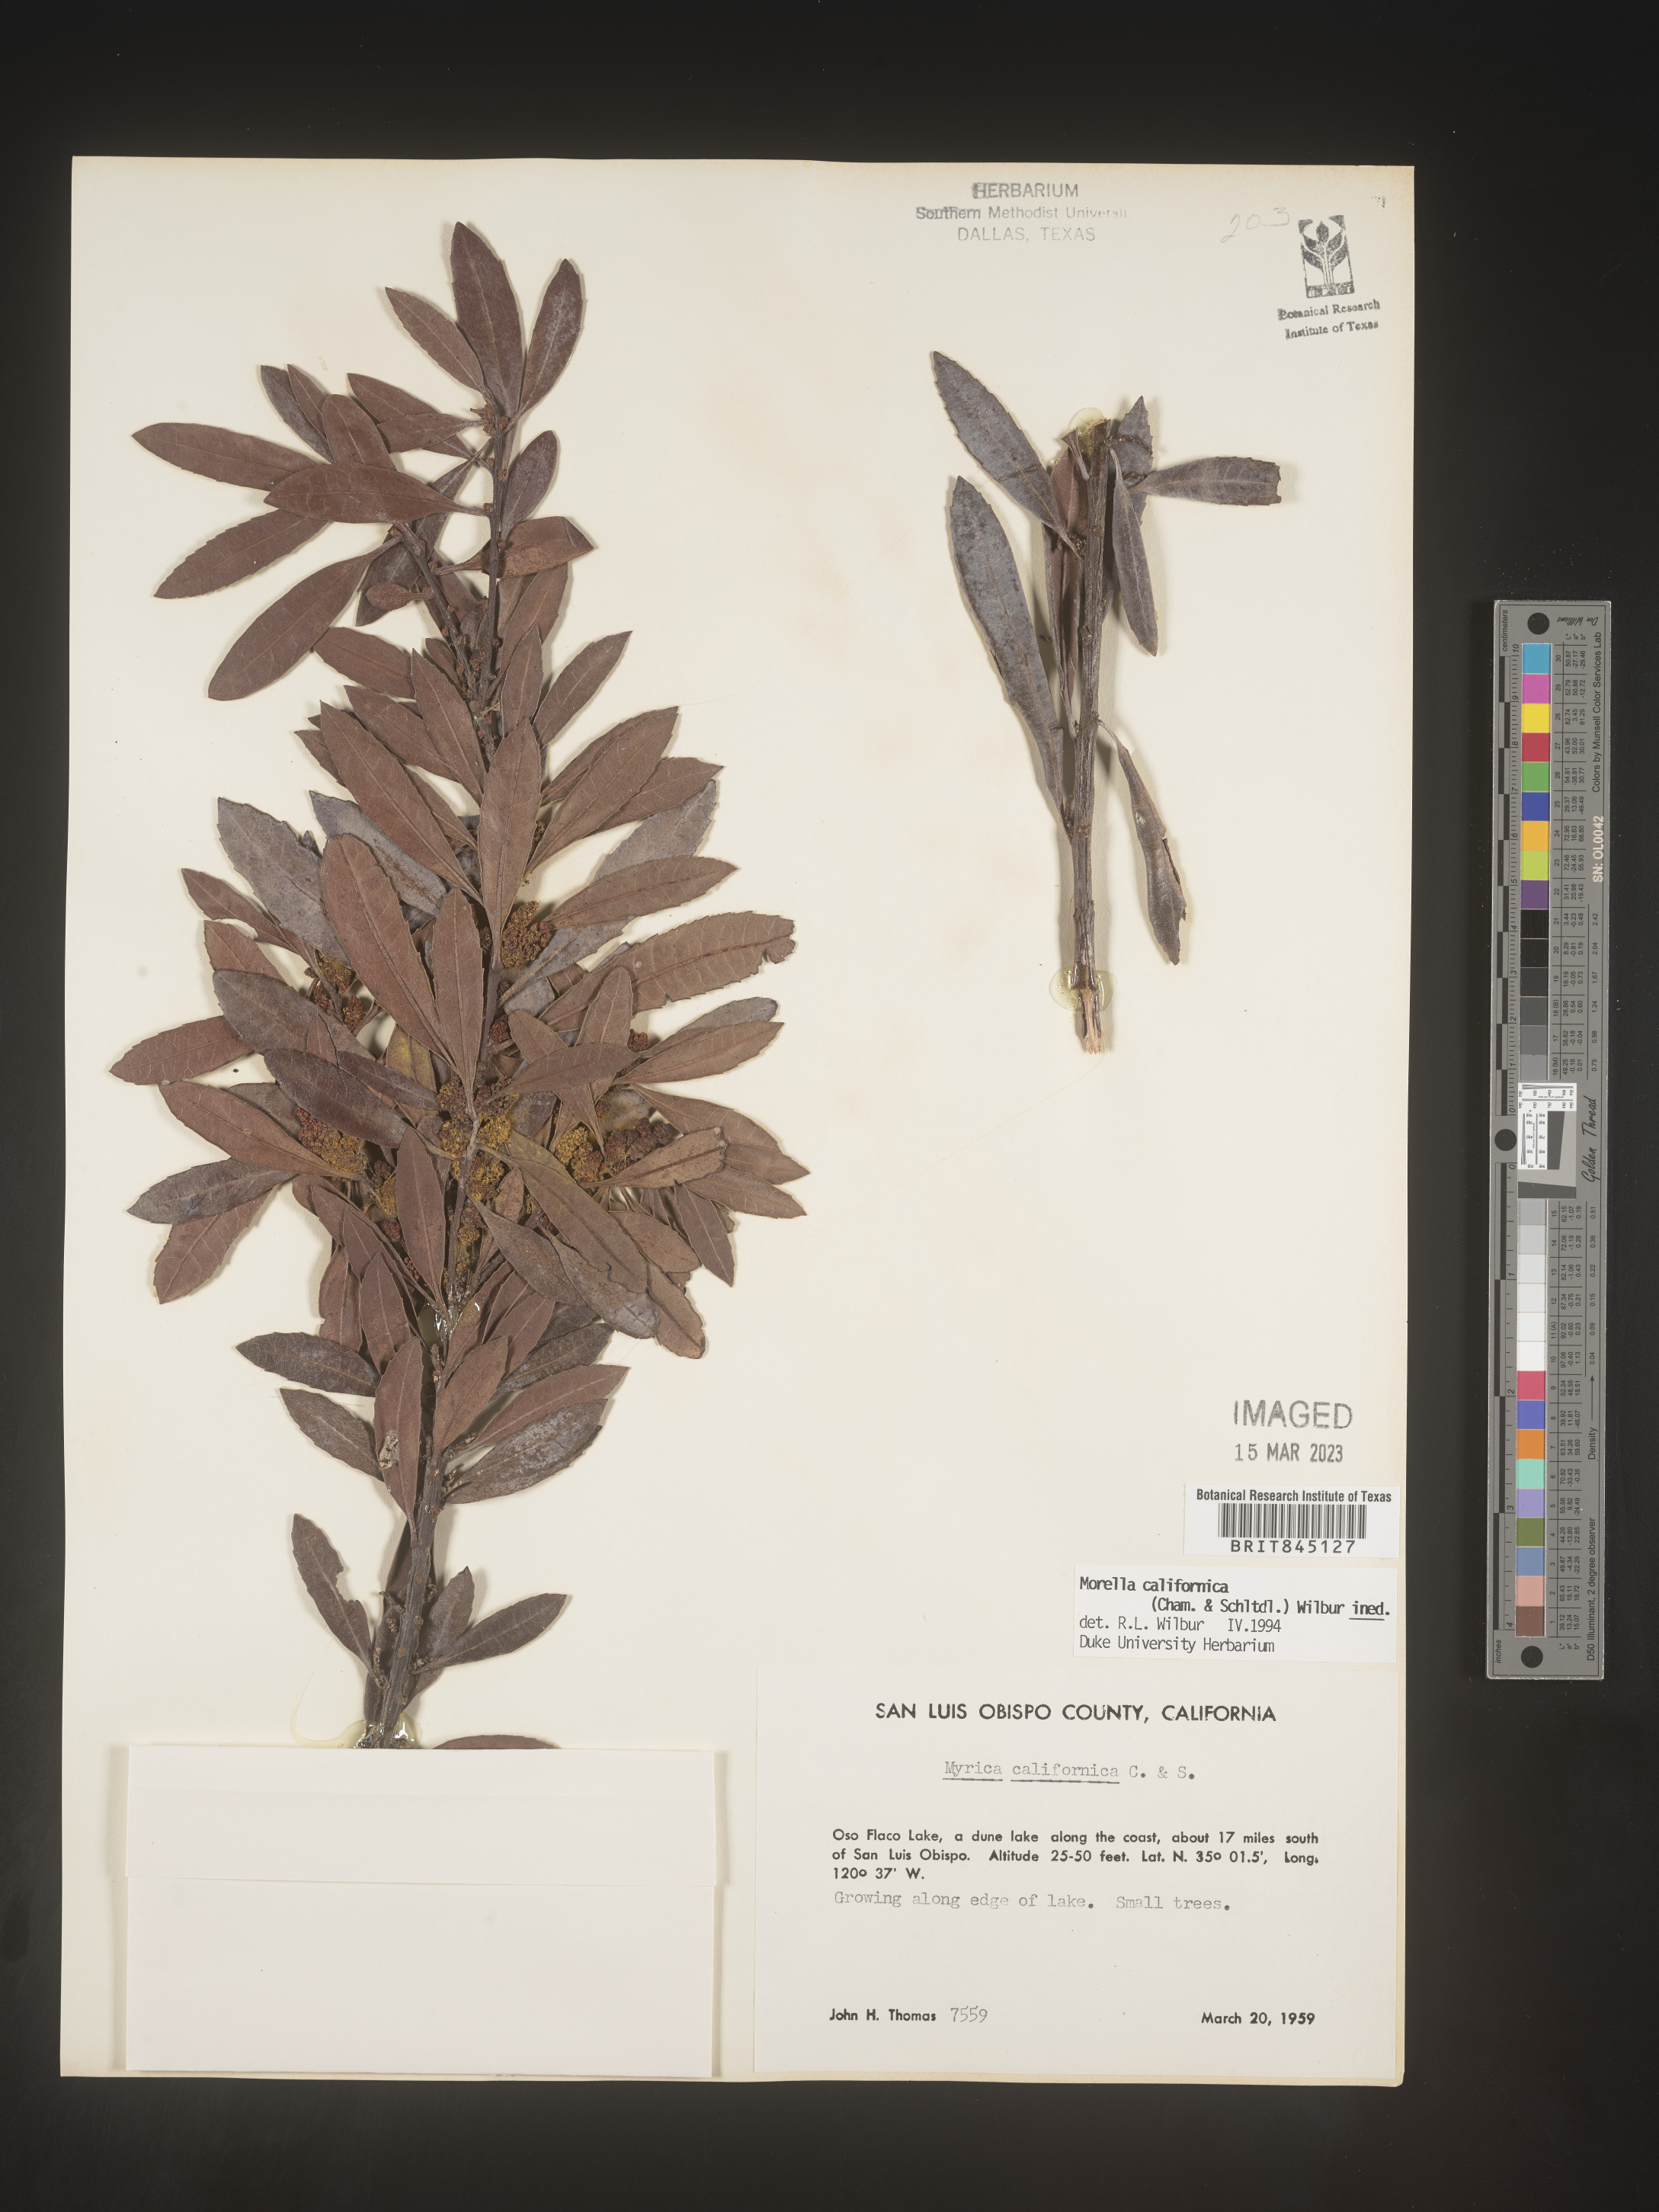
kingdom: Plantae
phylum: Tracheophyta
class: Magnoliopsida
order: Fagales
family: Myricaceae
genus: Morella
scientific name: Morella californica
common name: California wax-myrtle
